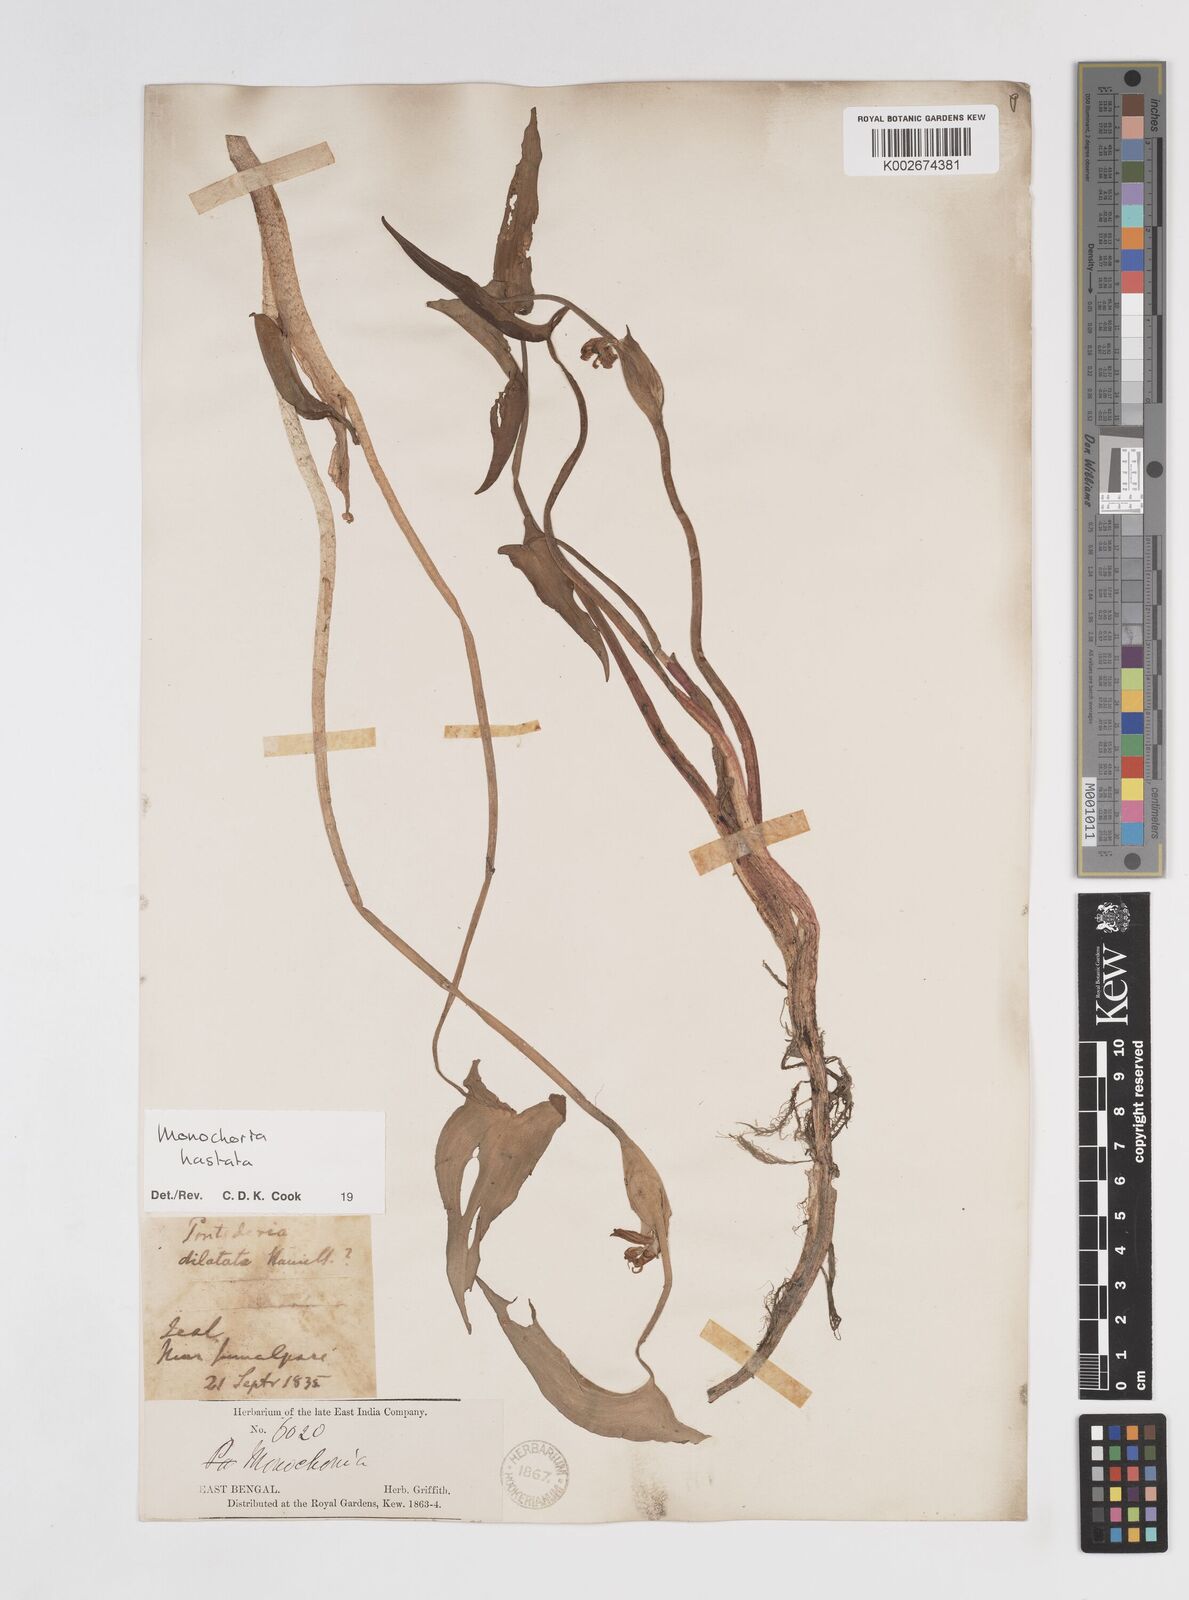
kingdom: Plantae
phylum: Tracheophyta
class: Liliopsida
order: Commelinales
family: Pontederiaceae
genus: Pontederia
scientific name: Pontederia hastata
